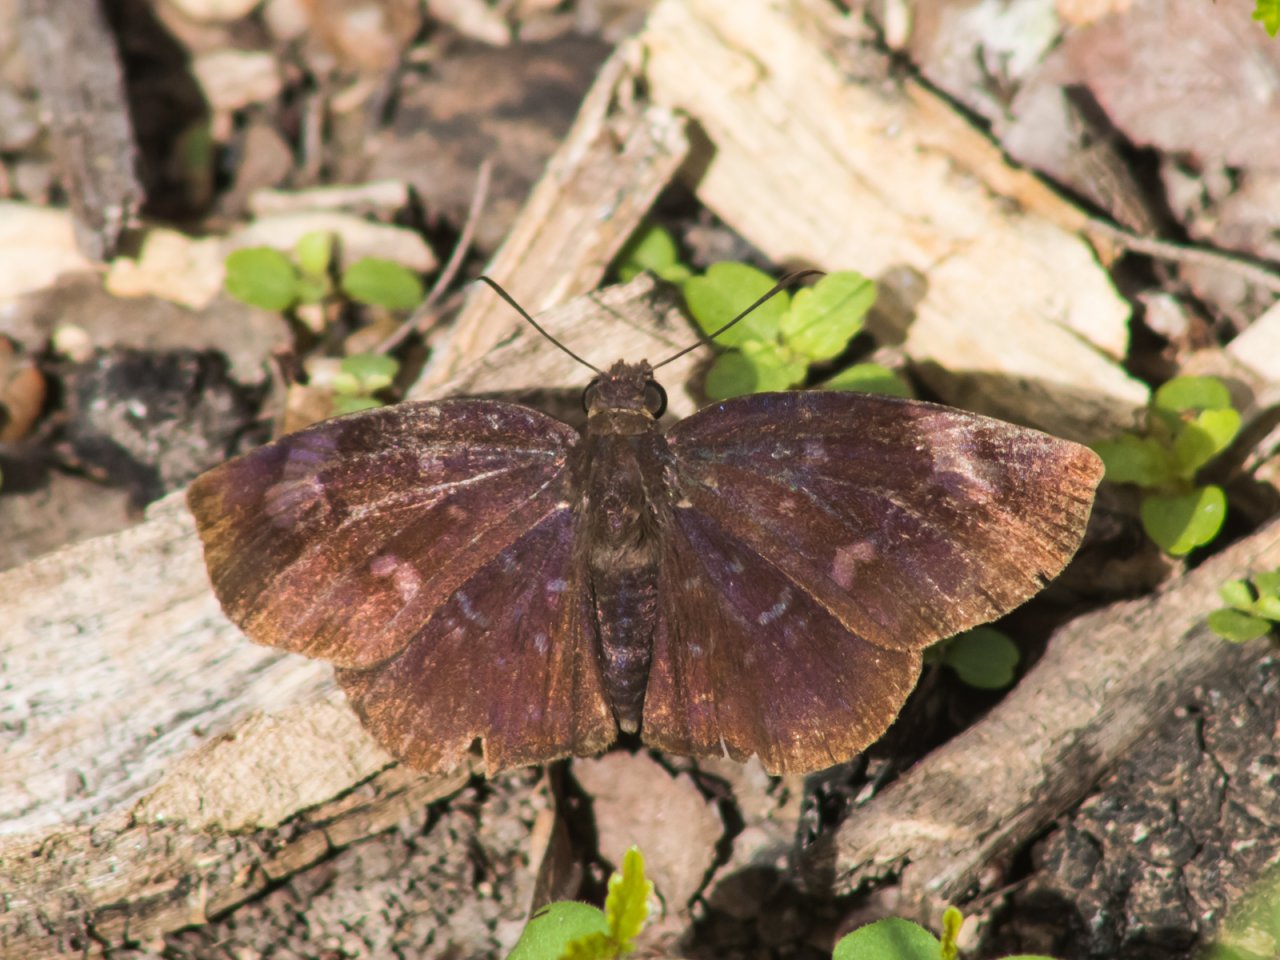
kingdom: Animalia
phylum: Arthropoda
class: Insecta
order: Lepidoptera
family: Hesperiidae
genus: Achlyodes
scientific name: Achlyodes thraso
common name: Sickle-winged Skipper
